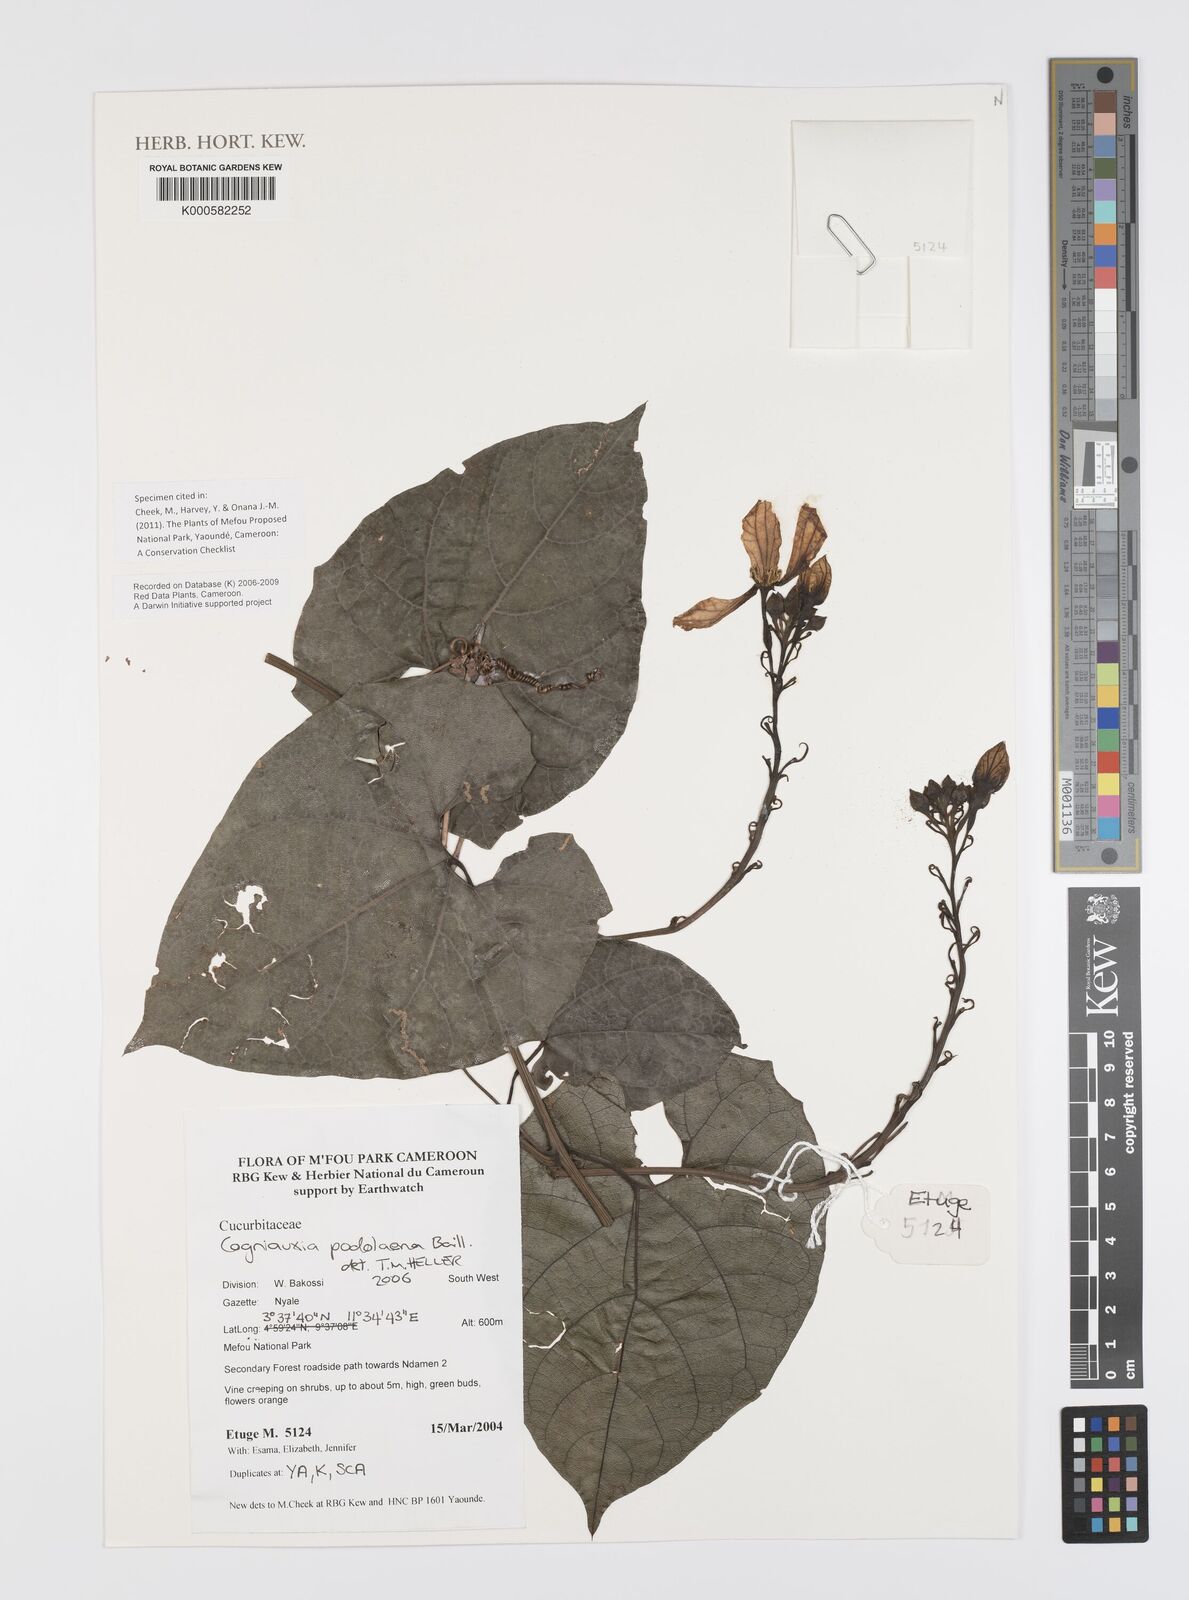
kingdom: Plantae
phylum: Tracheophyta
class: Magnoliopsida
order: Cucurbitales
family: Cucurbitaceae
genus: Cogniauxia
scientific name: Cogniauxia podolaena
